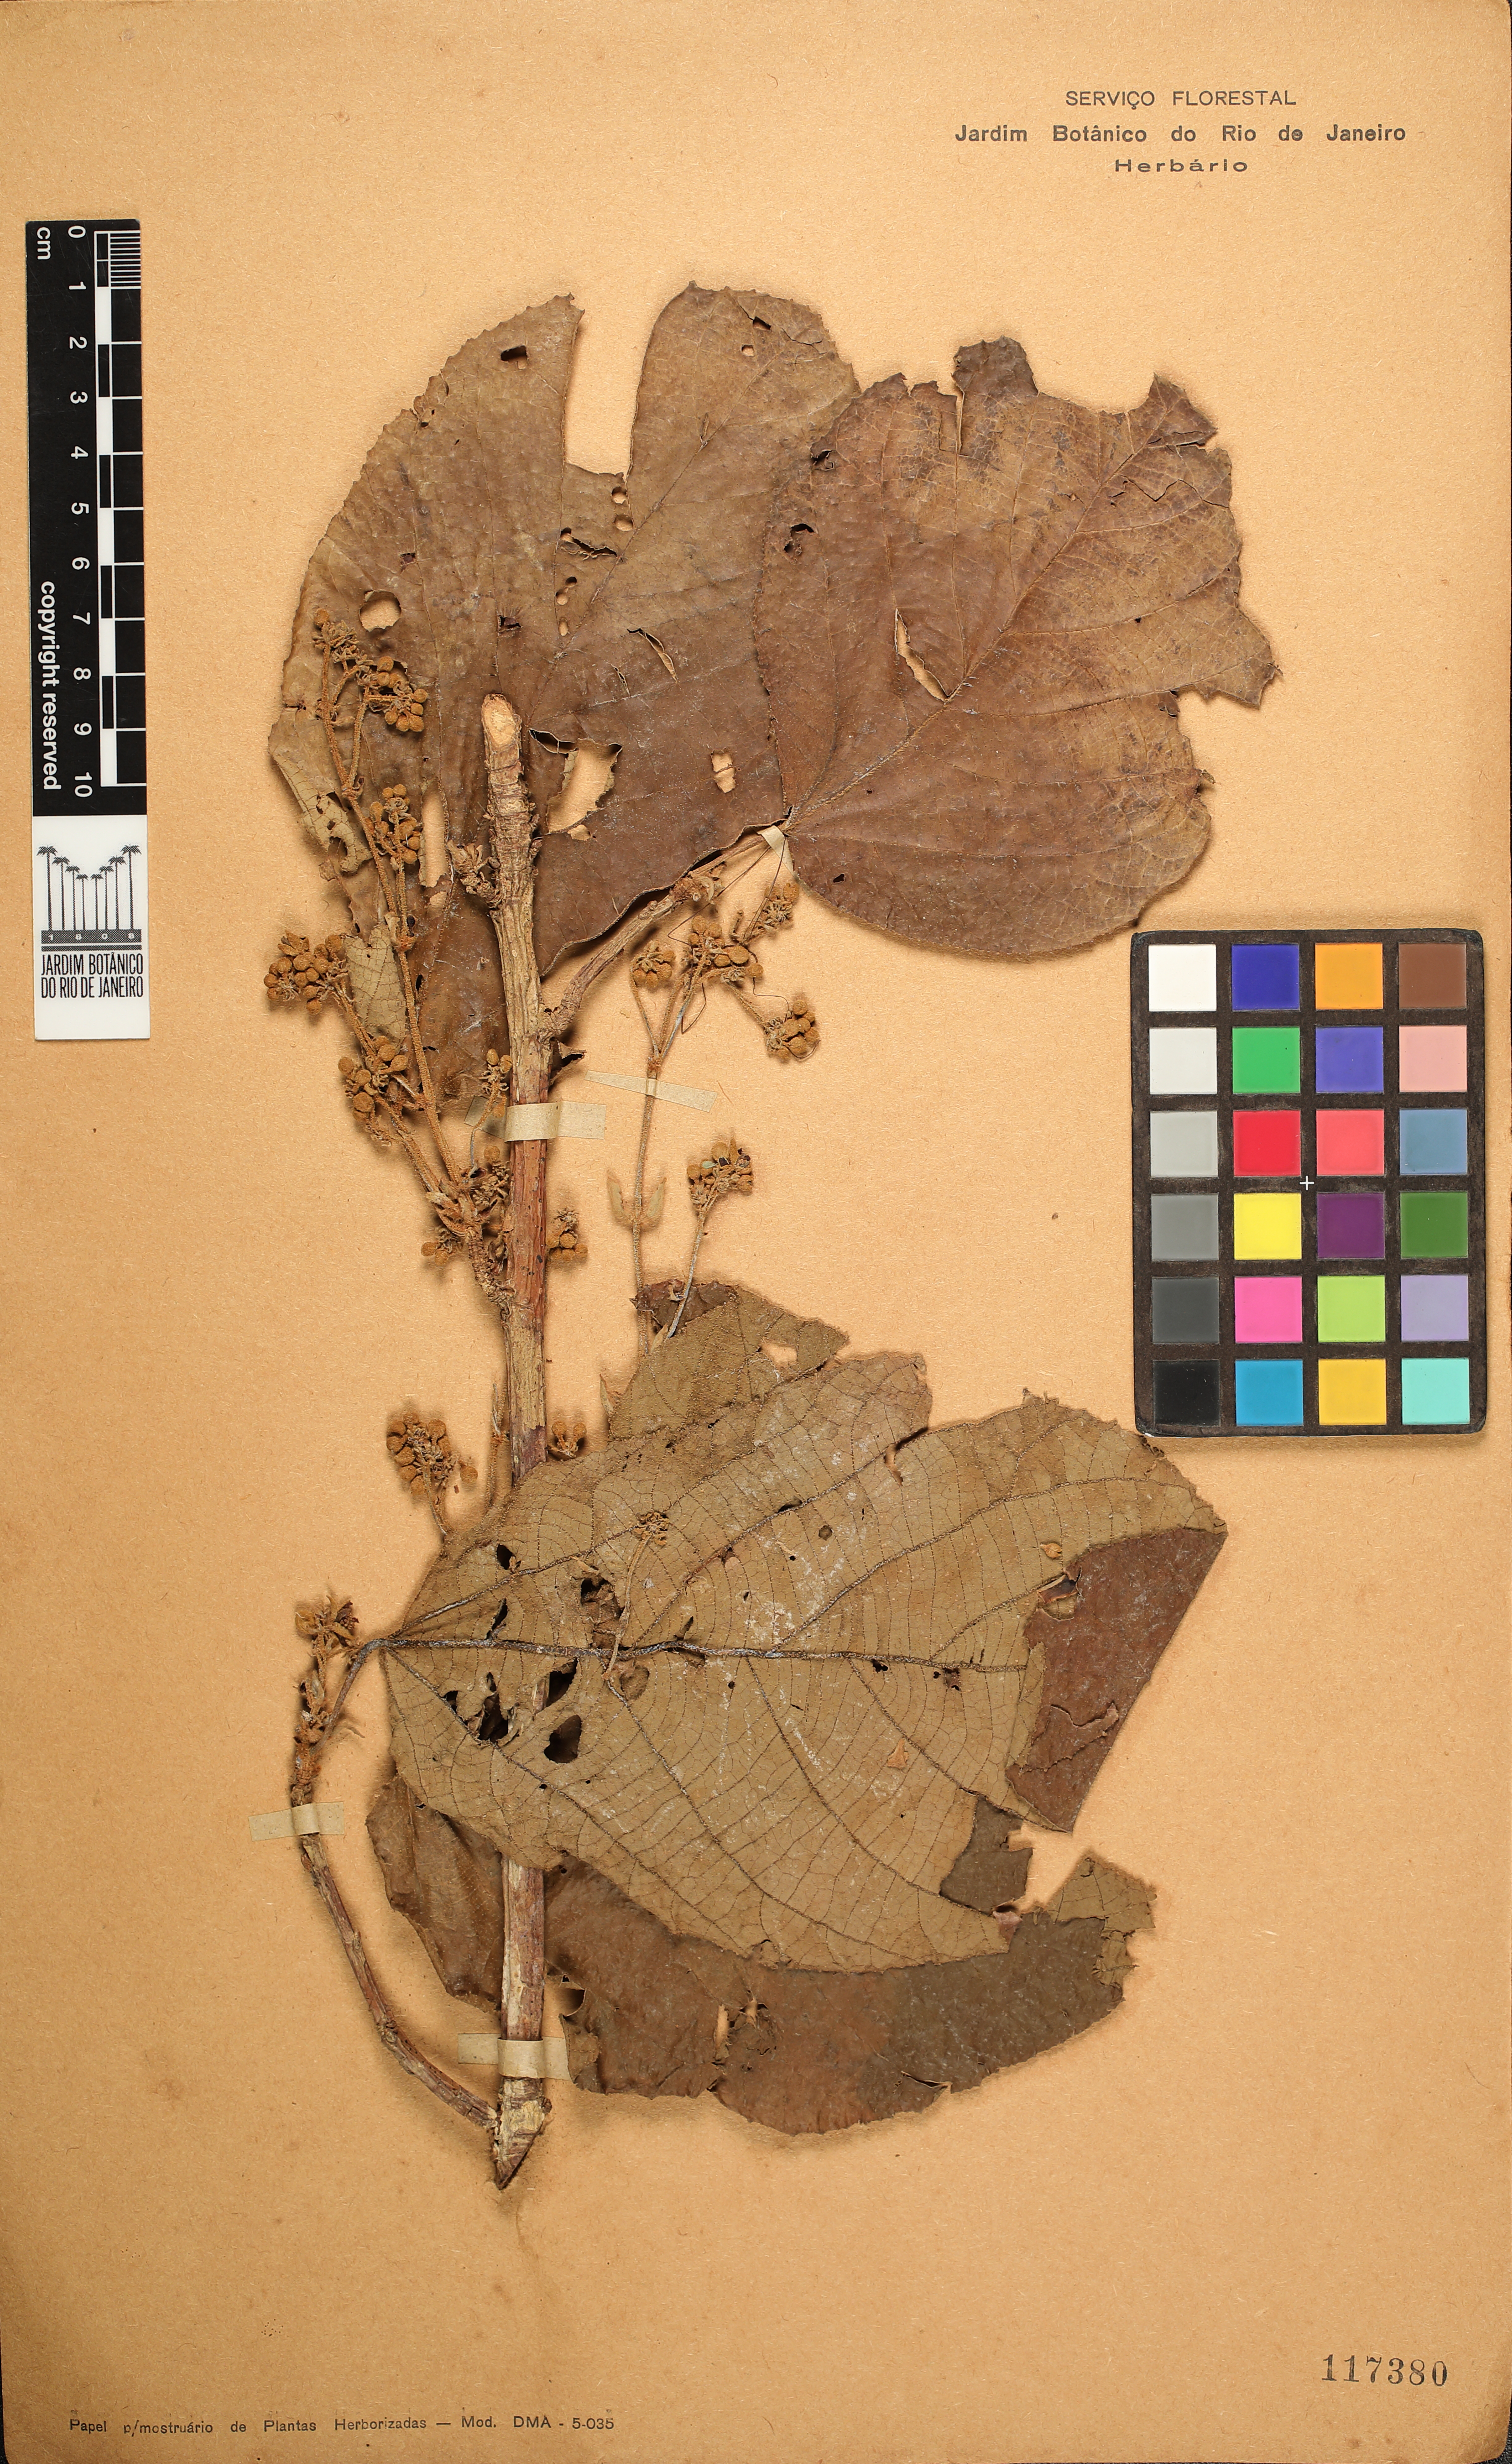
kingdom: Plantae
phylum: Tracheophyta
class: Magnoliopsida
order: Malvales
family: Malvaceae
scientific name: Malvaceae
